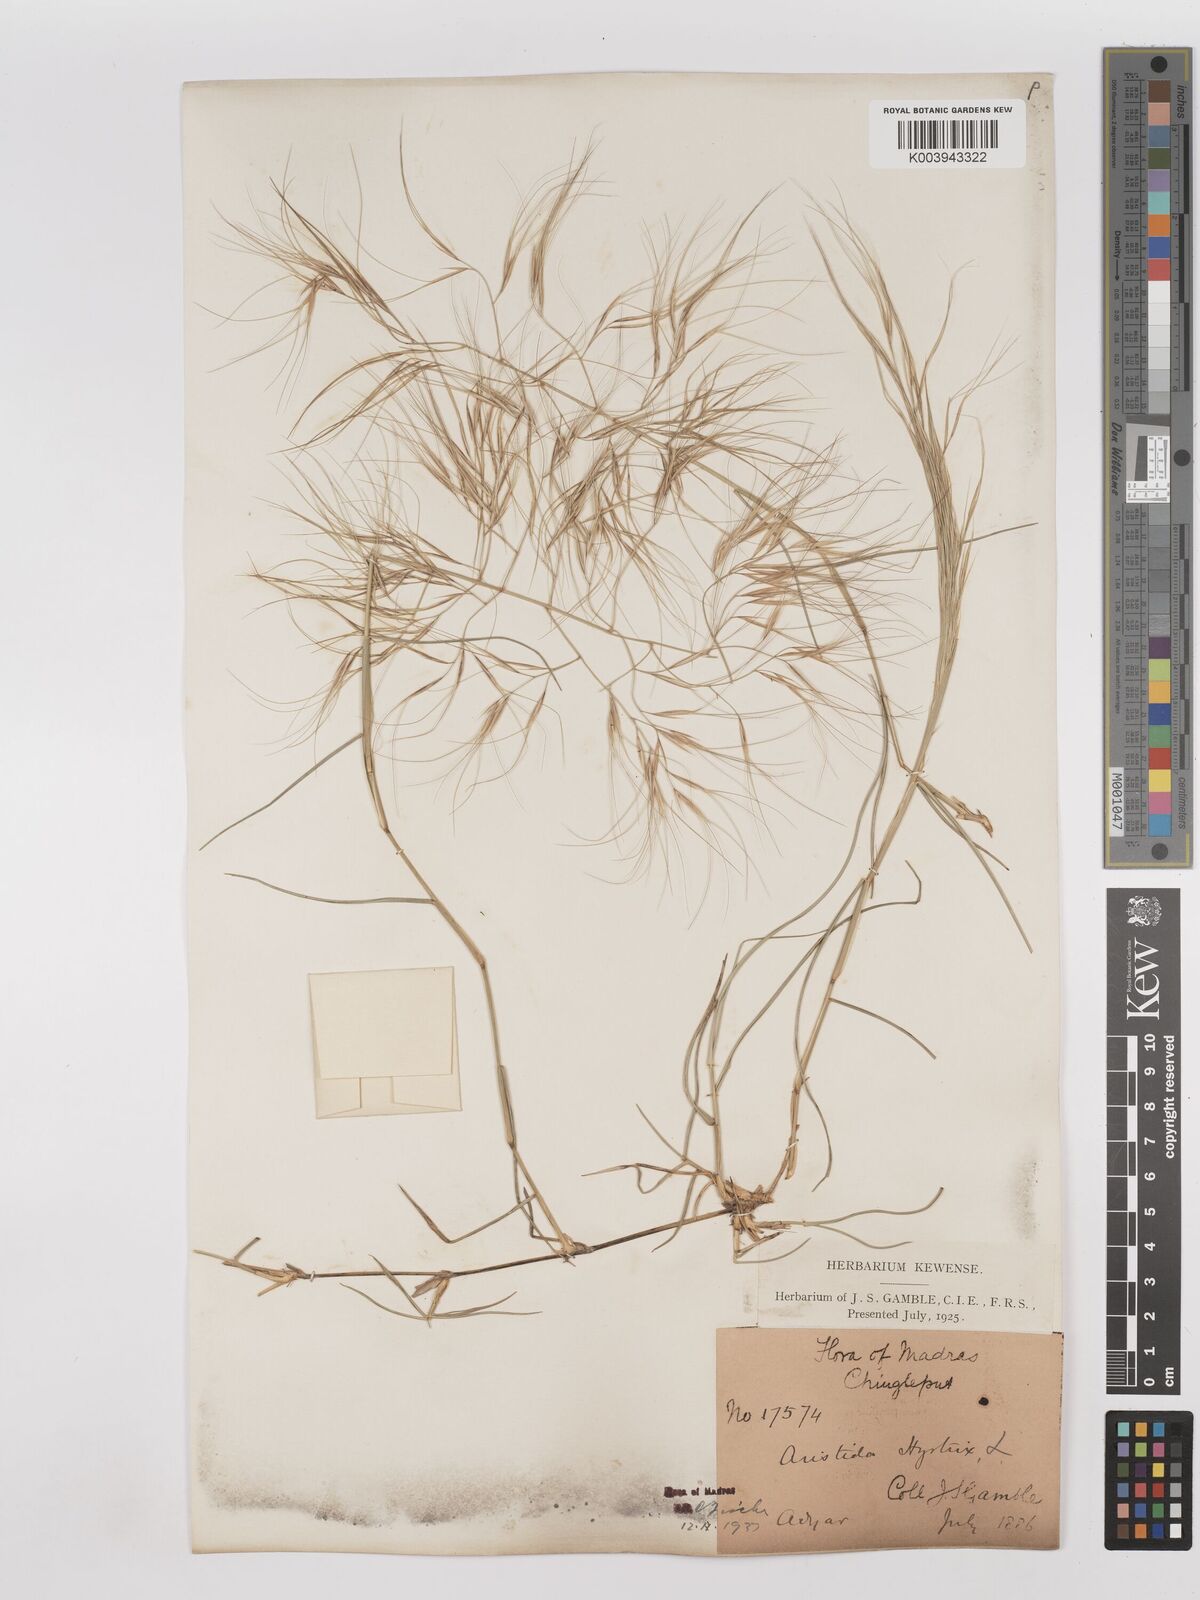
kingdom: Plantae
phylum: Tracheophyta
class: Liliopsida
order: Poales
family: Poaceae
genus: Aristida
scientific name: Aristida hystrix
